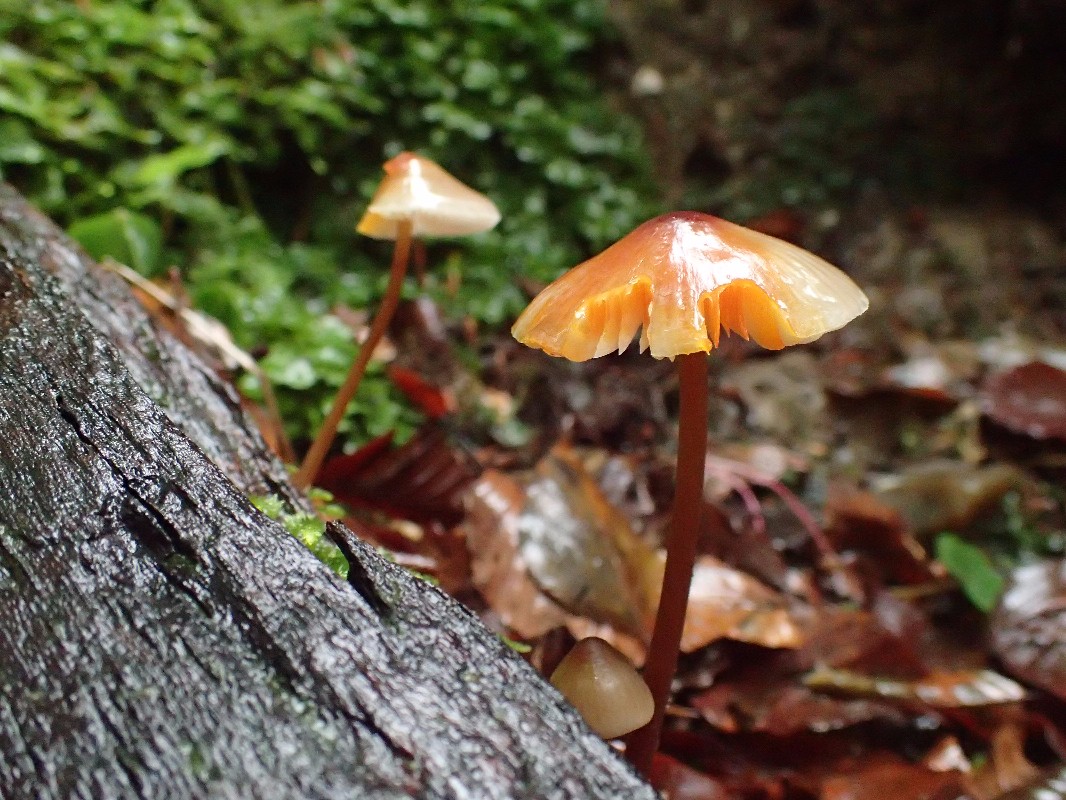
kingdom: Fungi
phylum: Basidiomycota
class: Agaricomycetes
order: Agaricales
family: Mycenaceae
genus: Mycena
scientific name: Mycena crocata
